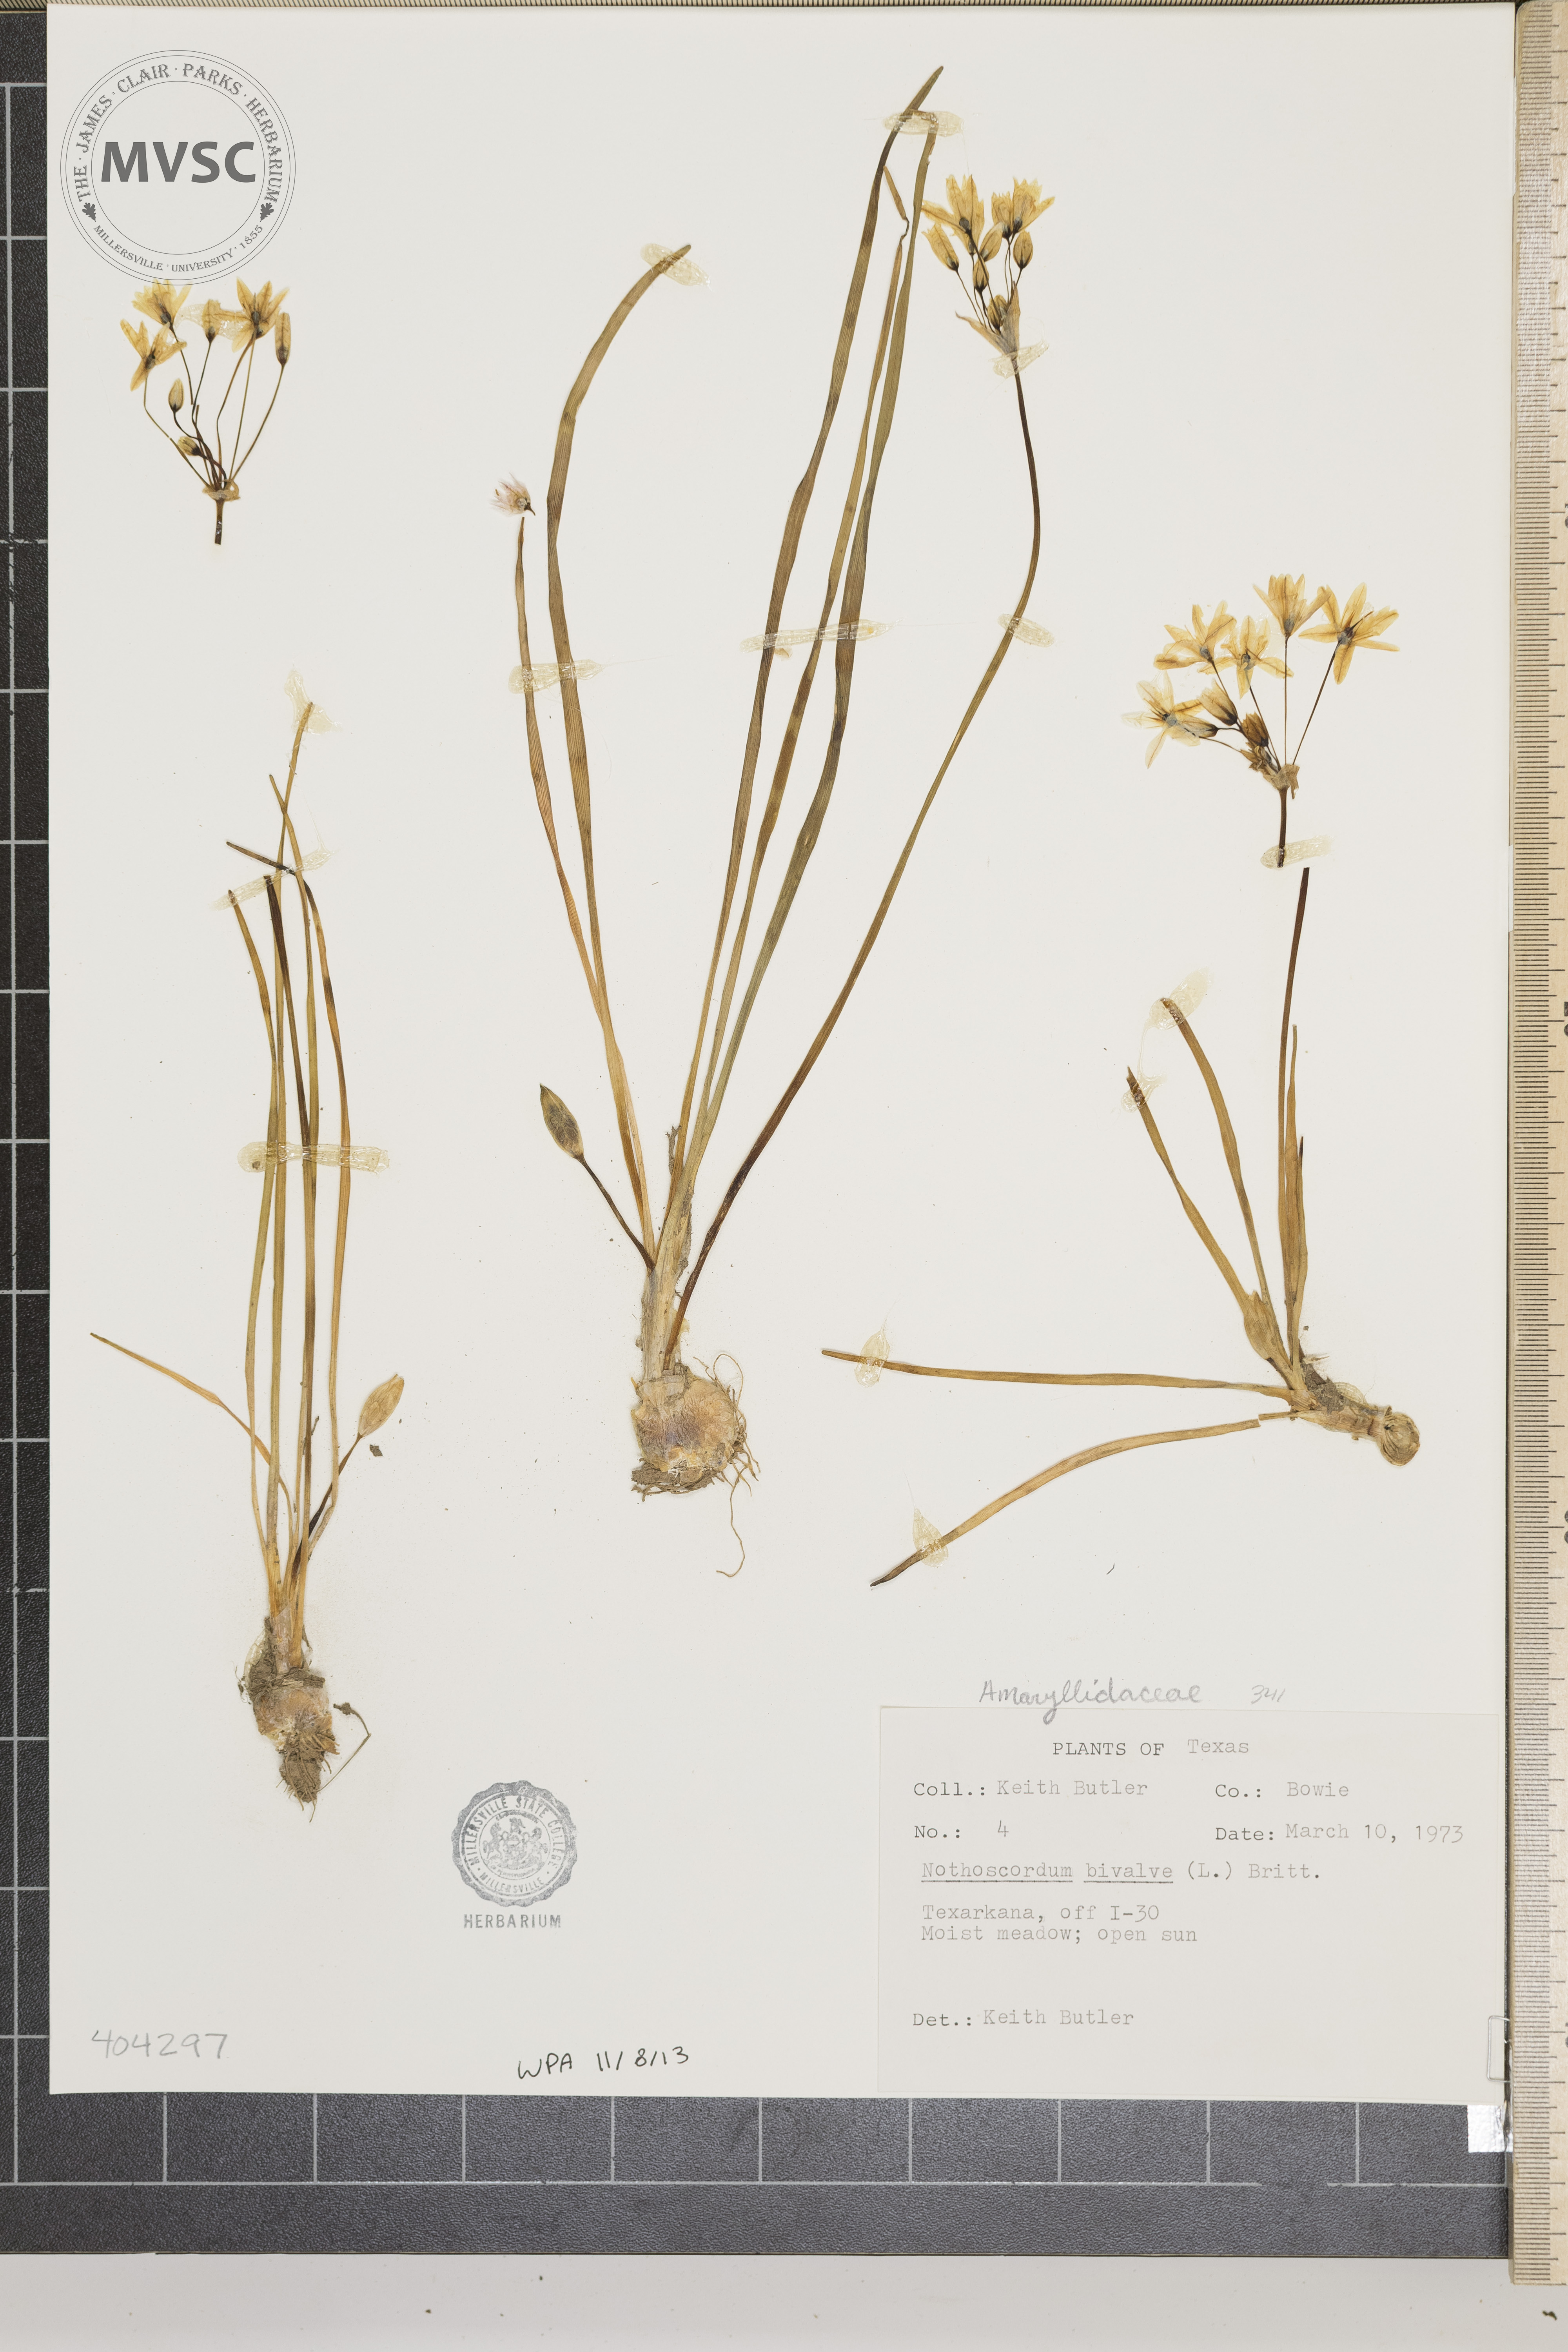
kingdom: Plantae
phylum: Tracheophyta
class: Liliopsida
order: Asparagales
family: Amaryllidaceae
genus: Nothoscordum
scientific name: Nothoscordum bivalve
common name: Crow-poison
